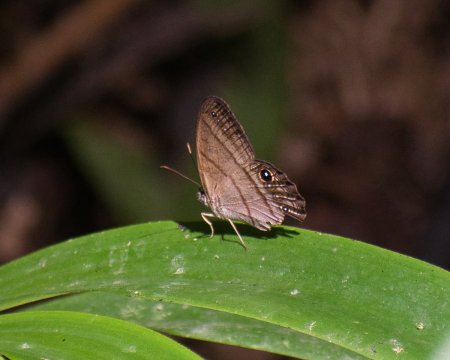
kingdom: Animalia
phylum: Arthropoda
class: Insecta
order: Lepidoptera
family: Nymphalidae
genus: Chloreuptychia
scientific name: Chloreuptychia arnaca
